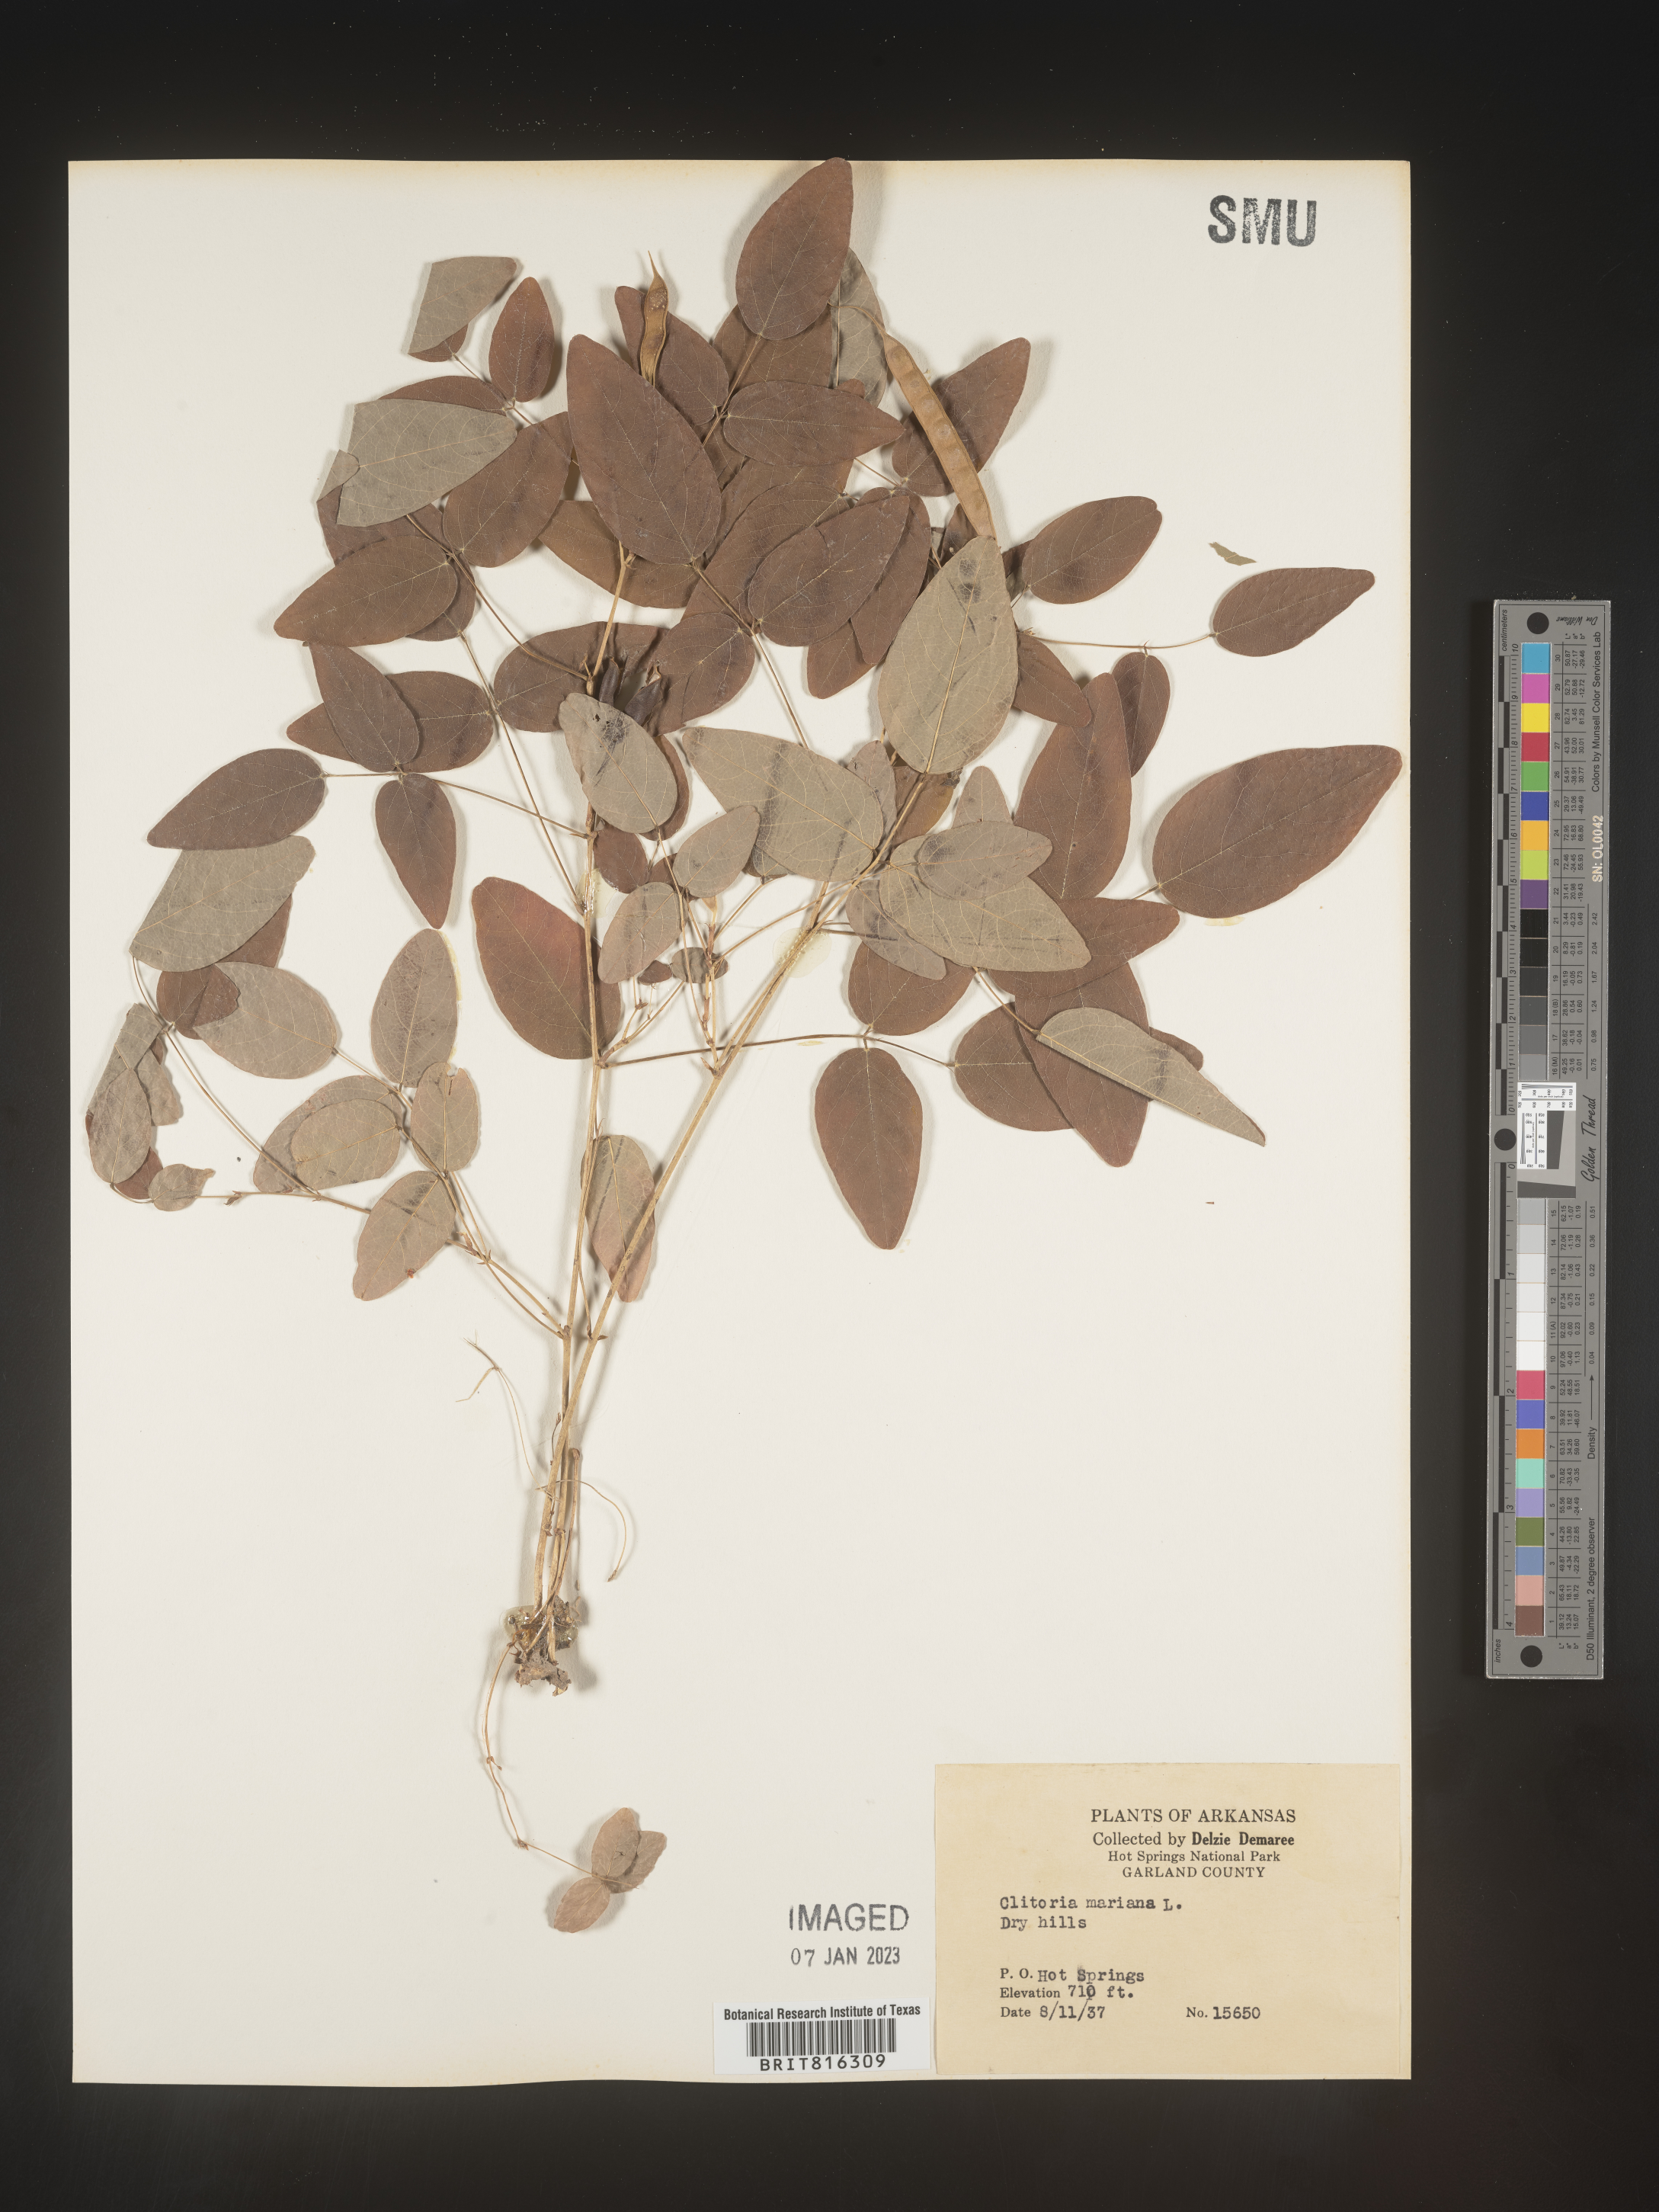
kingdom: Plantae
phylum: Tracheophyta
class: Magnoliopsida
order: Fabales
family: Fabaceae
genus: Clitoria
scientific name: Clitoria mariana
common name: Butterfly-pea
